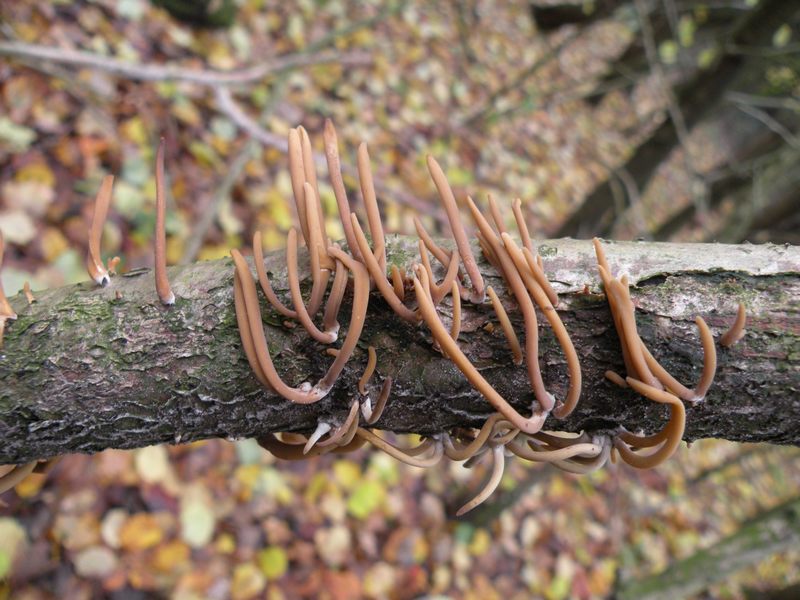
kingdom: Fungi
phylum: Basidiomycota
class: Agaricomycetes
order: Agaricales
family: Typhulaceae
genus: Typhula
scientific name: Typhula fistulosa
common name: pibet rørkølle
